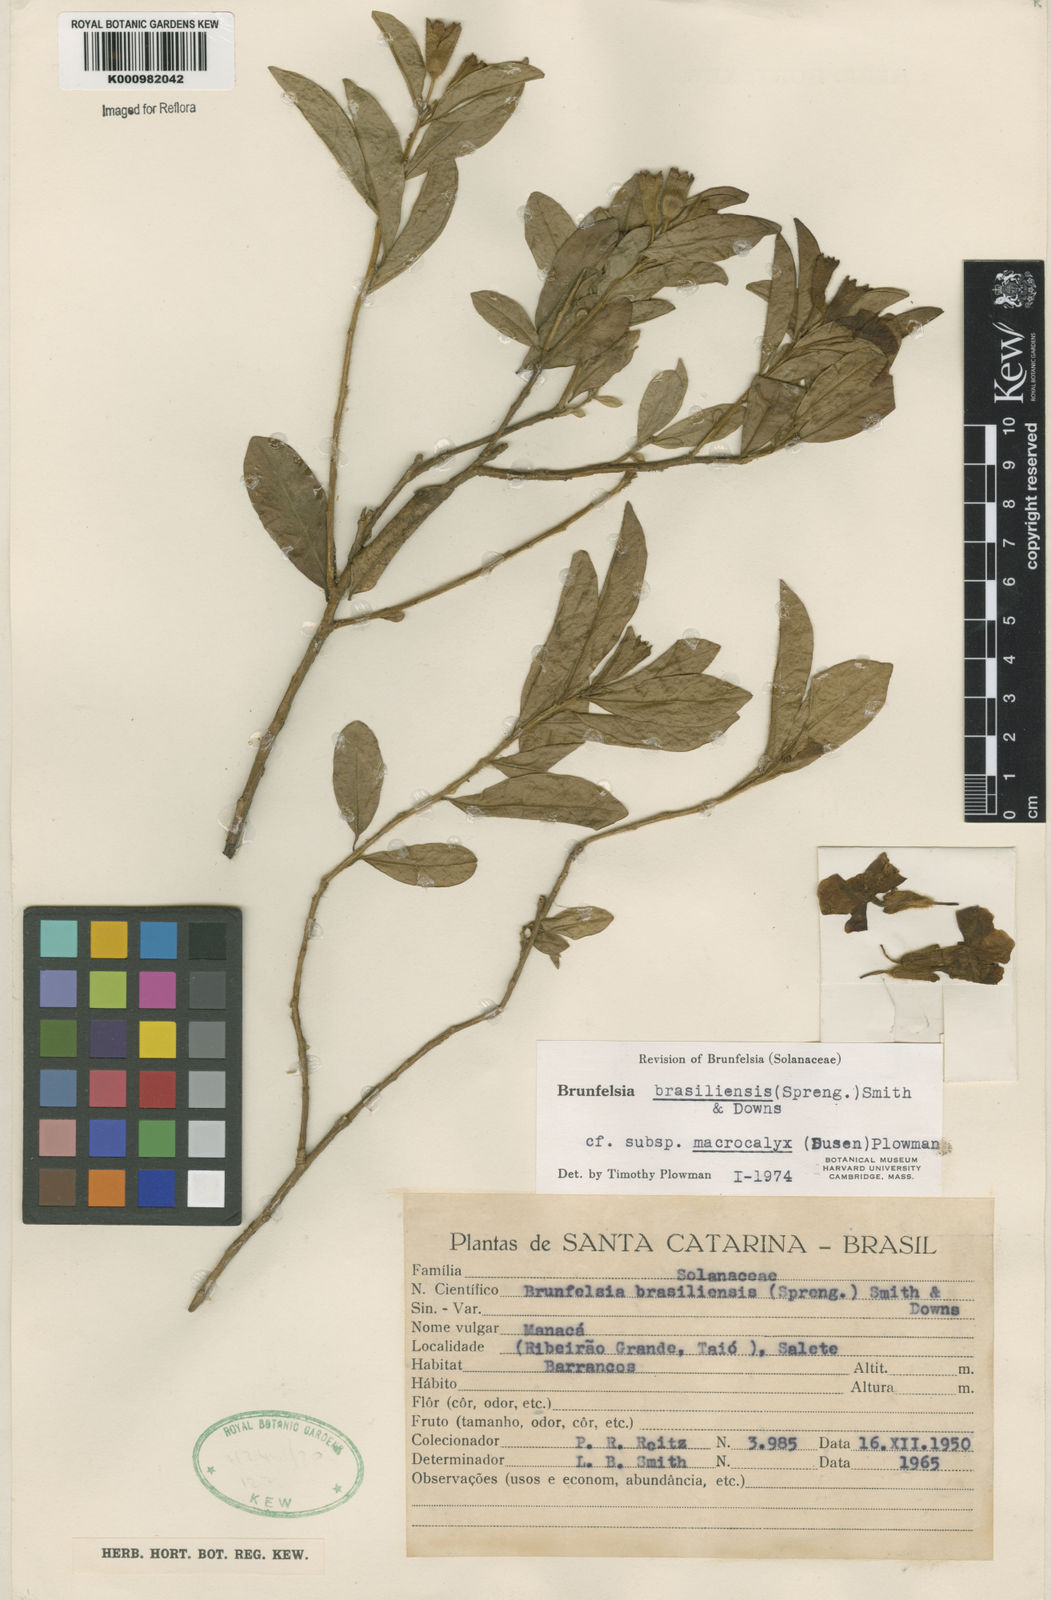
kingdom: Plantae
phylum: Tracheophyta
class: Magnoliopsida
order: Solanales
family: Solanaceae
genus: Brunfelsia
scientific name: Brunfelsia brasiliensis
